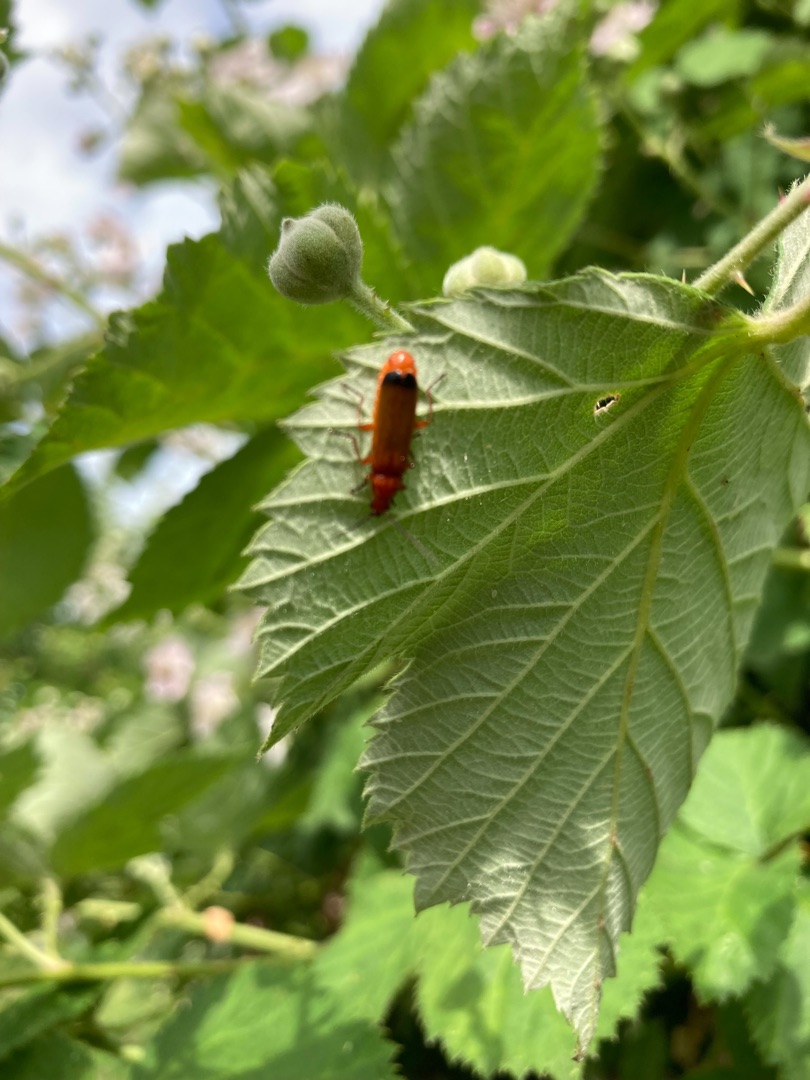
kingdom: Animalia
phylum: Arthropoda
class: Insecta
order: Coleoptera
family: Cantharidae
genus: Rhagonycha
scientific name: Rhagonycha fulva
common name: Præstebille
